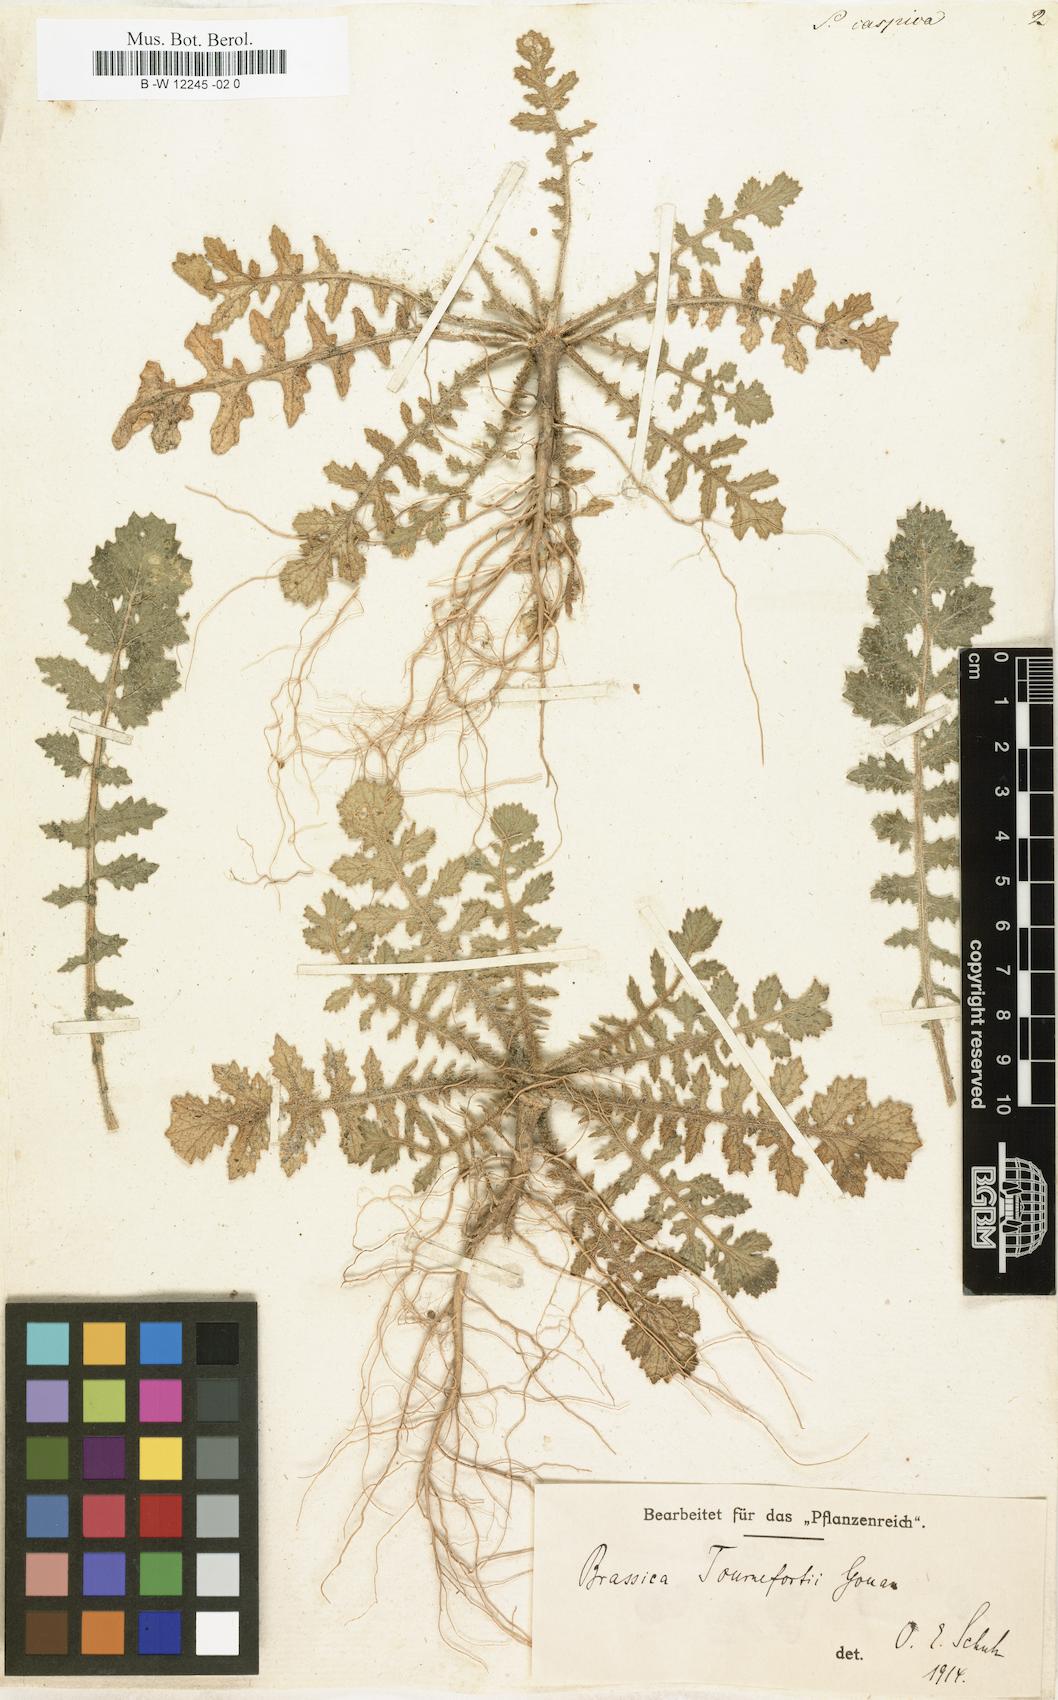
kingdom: Plantae
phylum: Tracheophyta
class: Magnoliopsida
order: Brassicales
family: Brassicaceae
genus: Brassica
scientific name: Brassica tournefortii
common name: Pale cabbage
